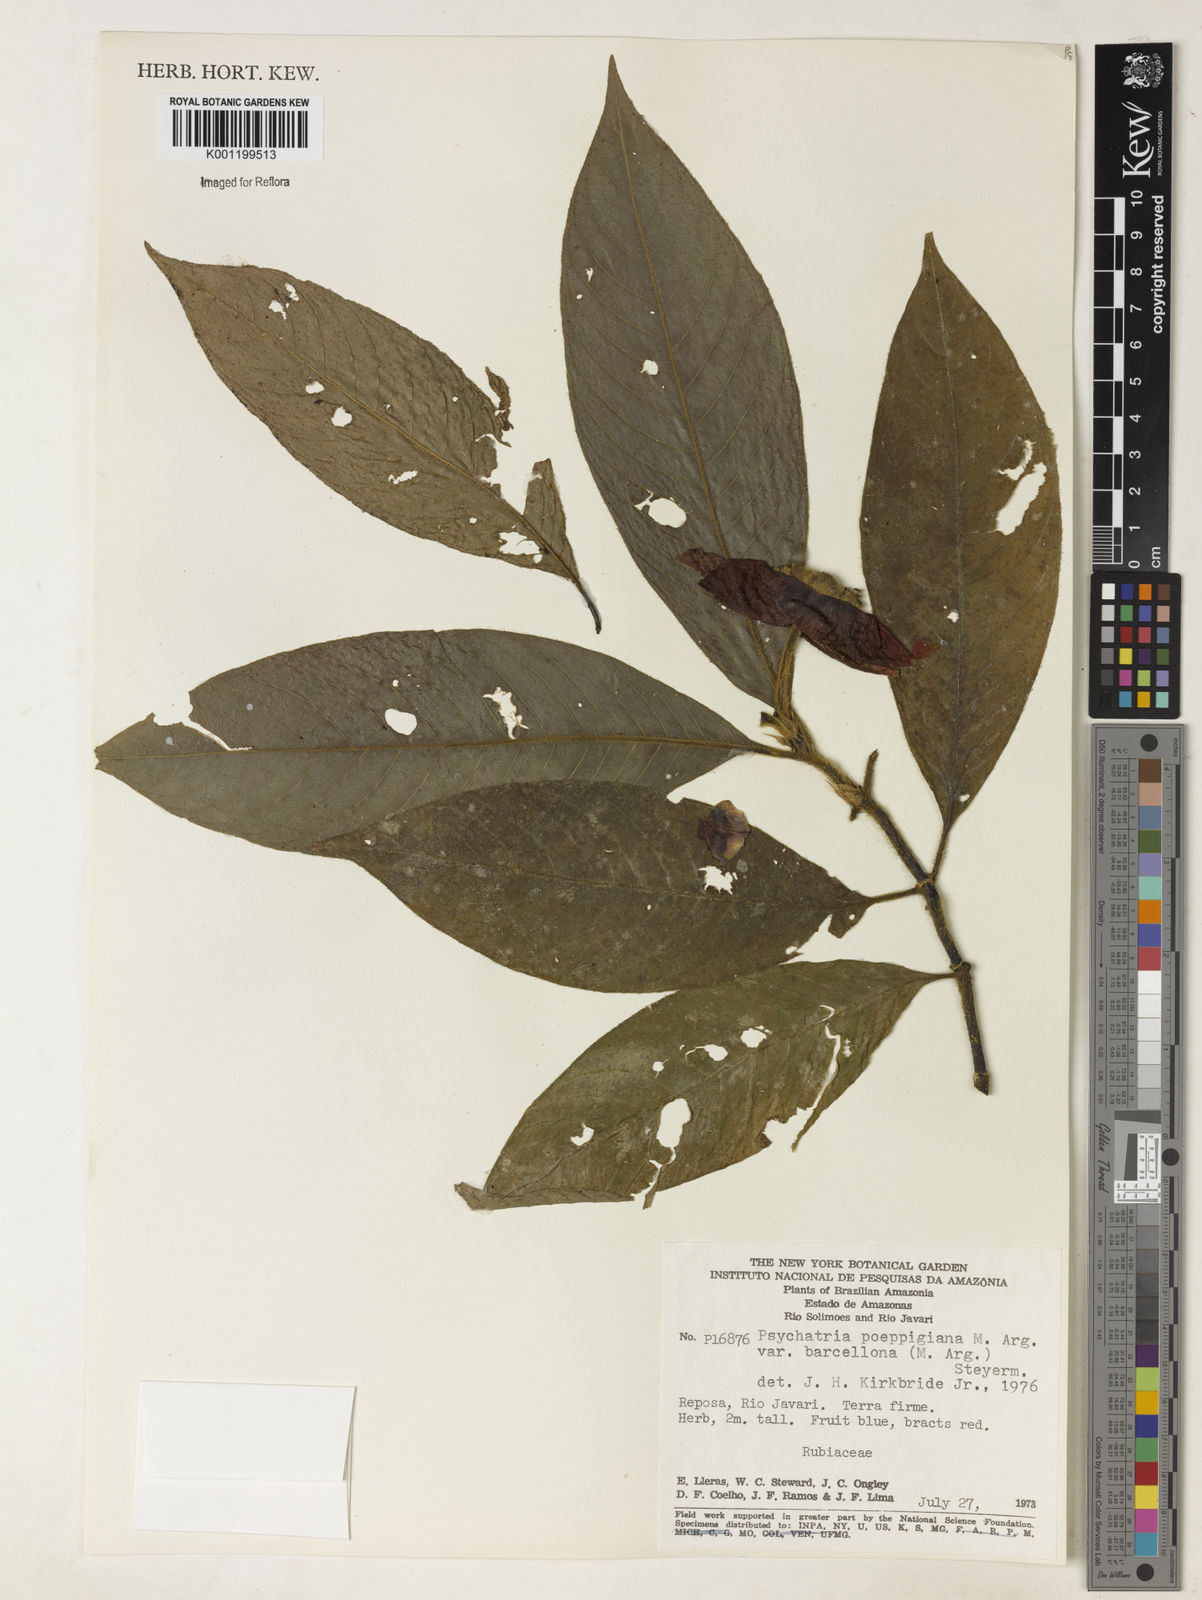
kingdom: Plantae
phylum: Tracheophyta
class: Magnoliopsida
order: Gentianales
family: Rubiaceae
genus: Psychotria
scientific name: Psychotria
